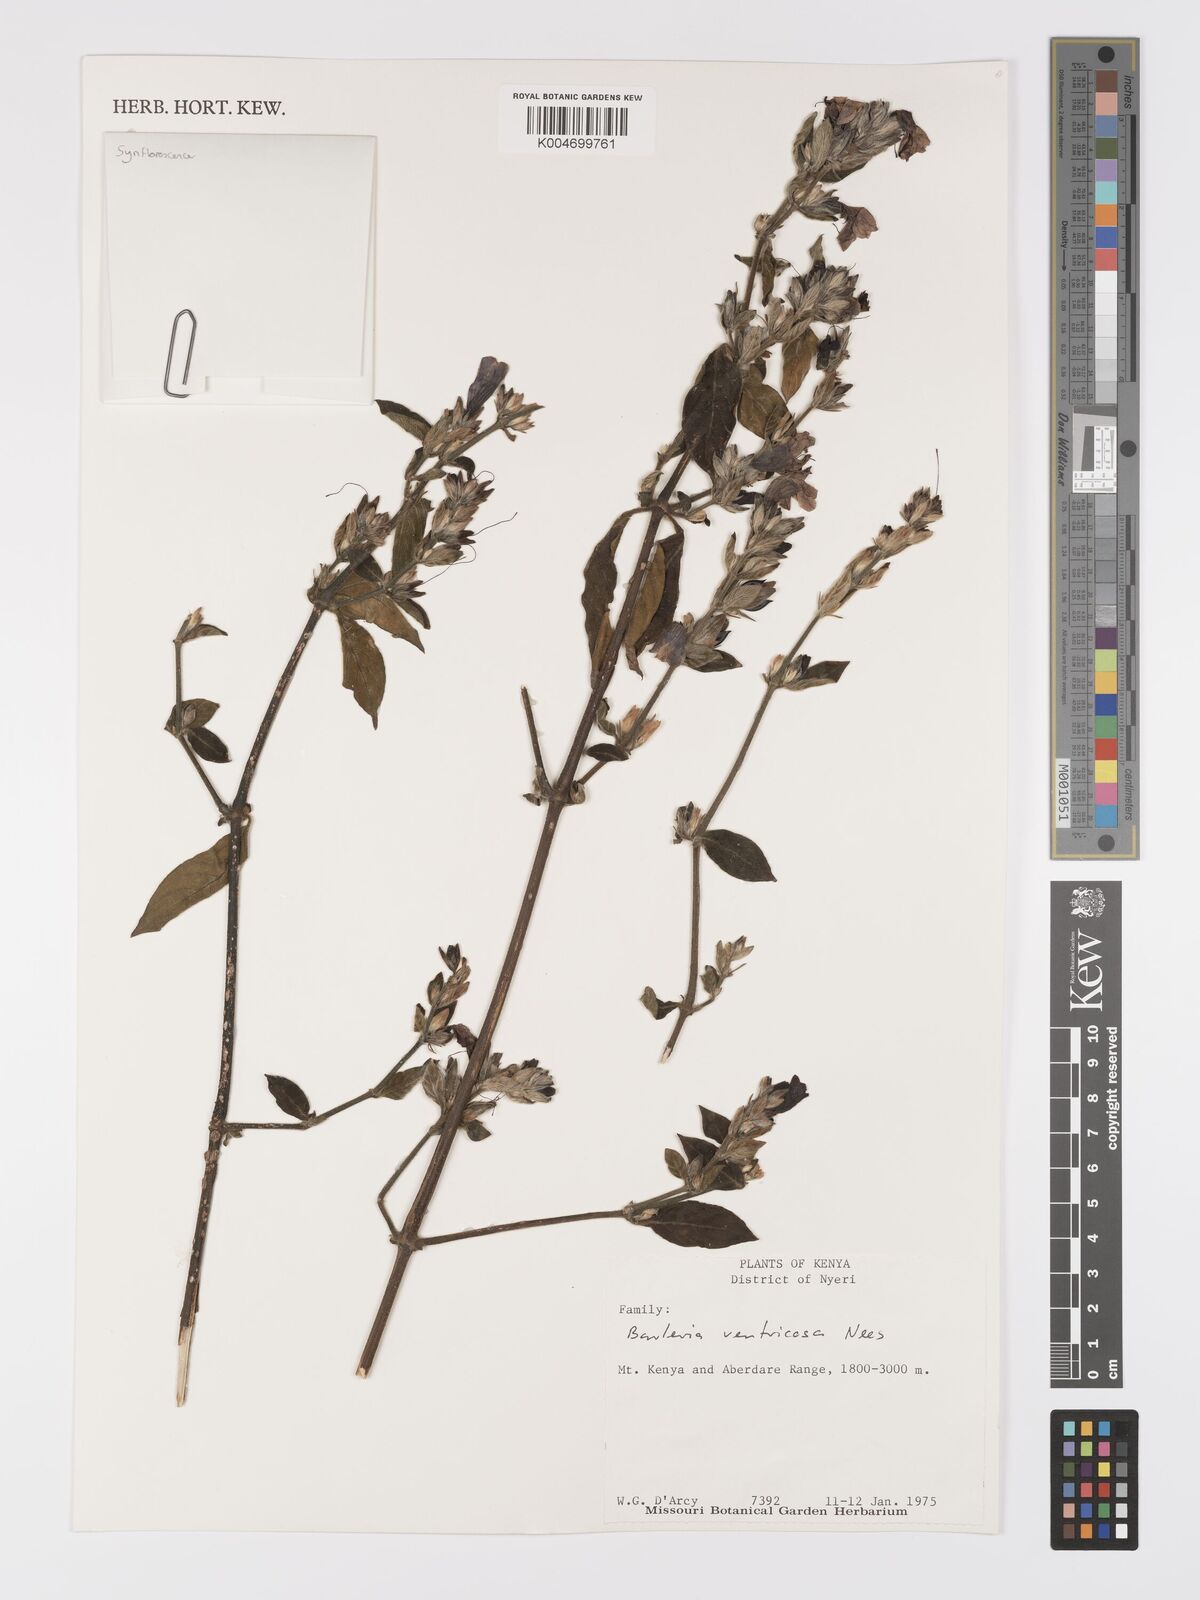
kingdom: Plantae
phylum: Tracheophyta
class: Magnoliopsida
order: Lamiales
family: Acanthaceae
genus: Barleria
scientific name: Barleria ventricosa
